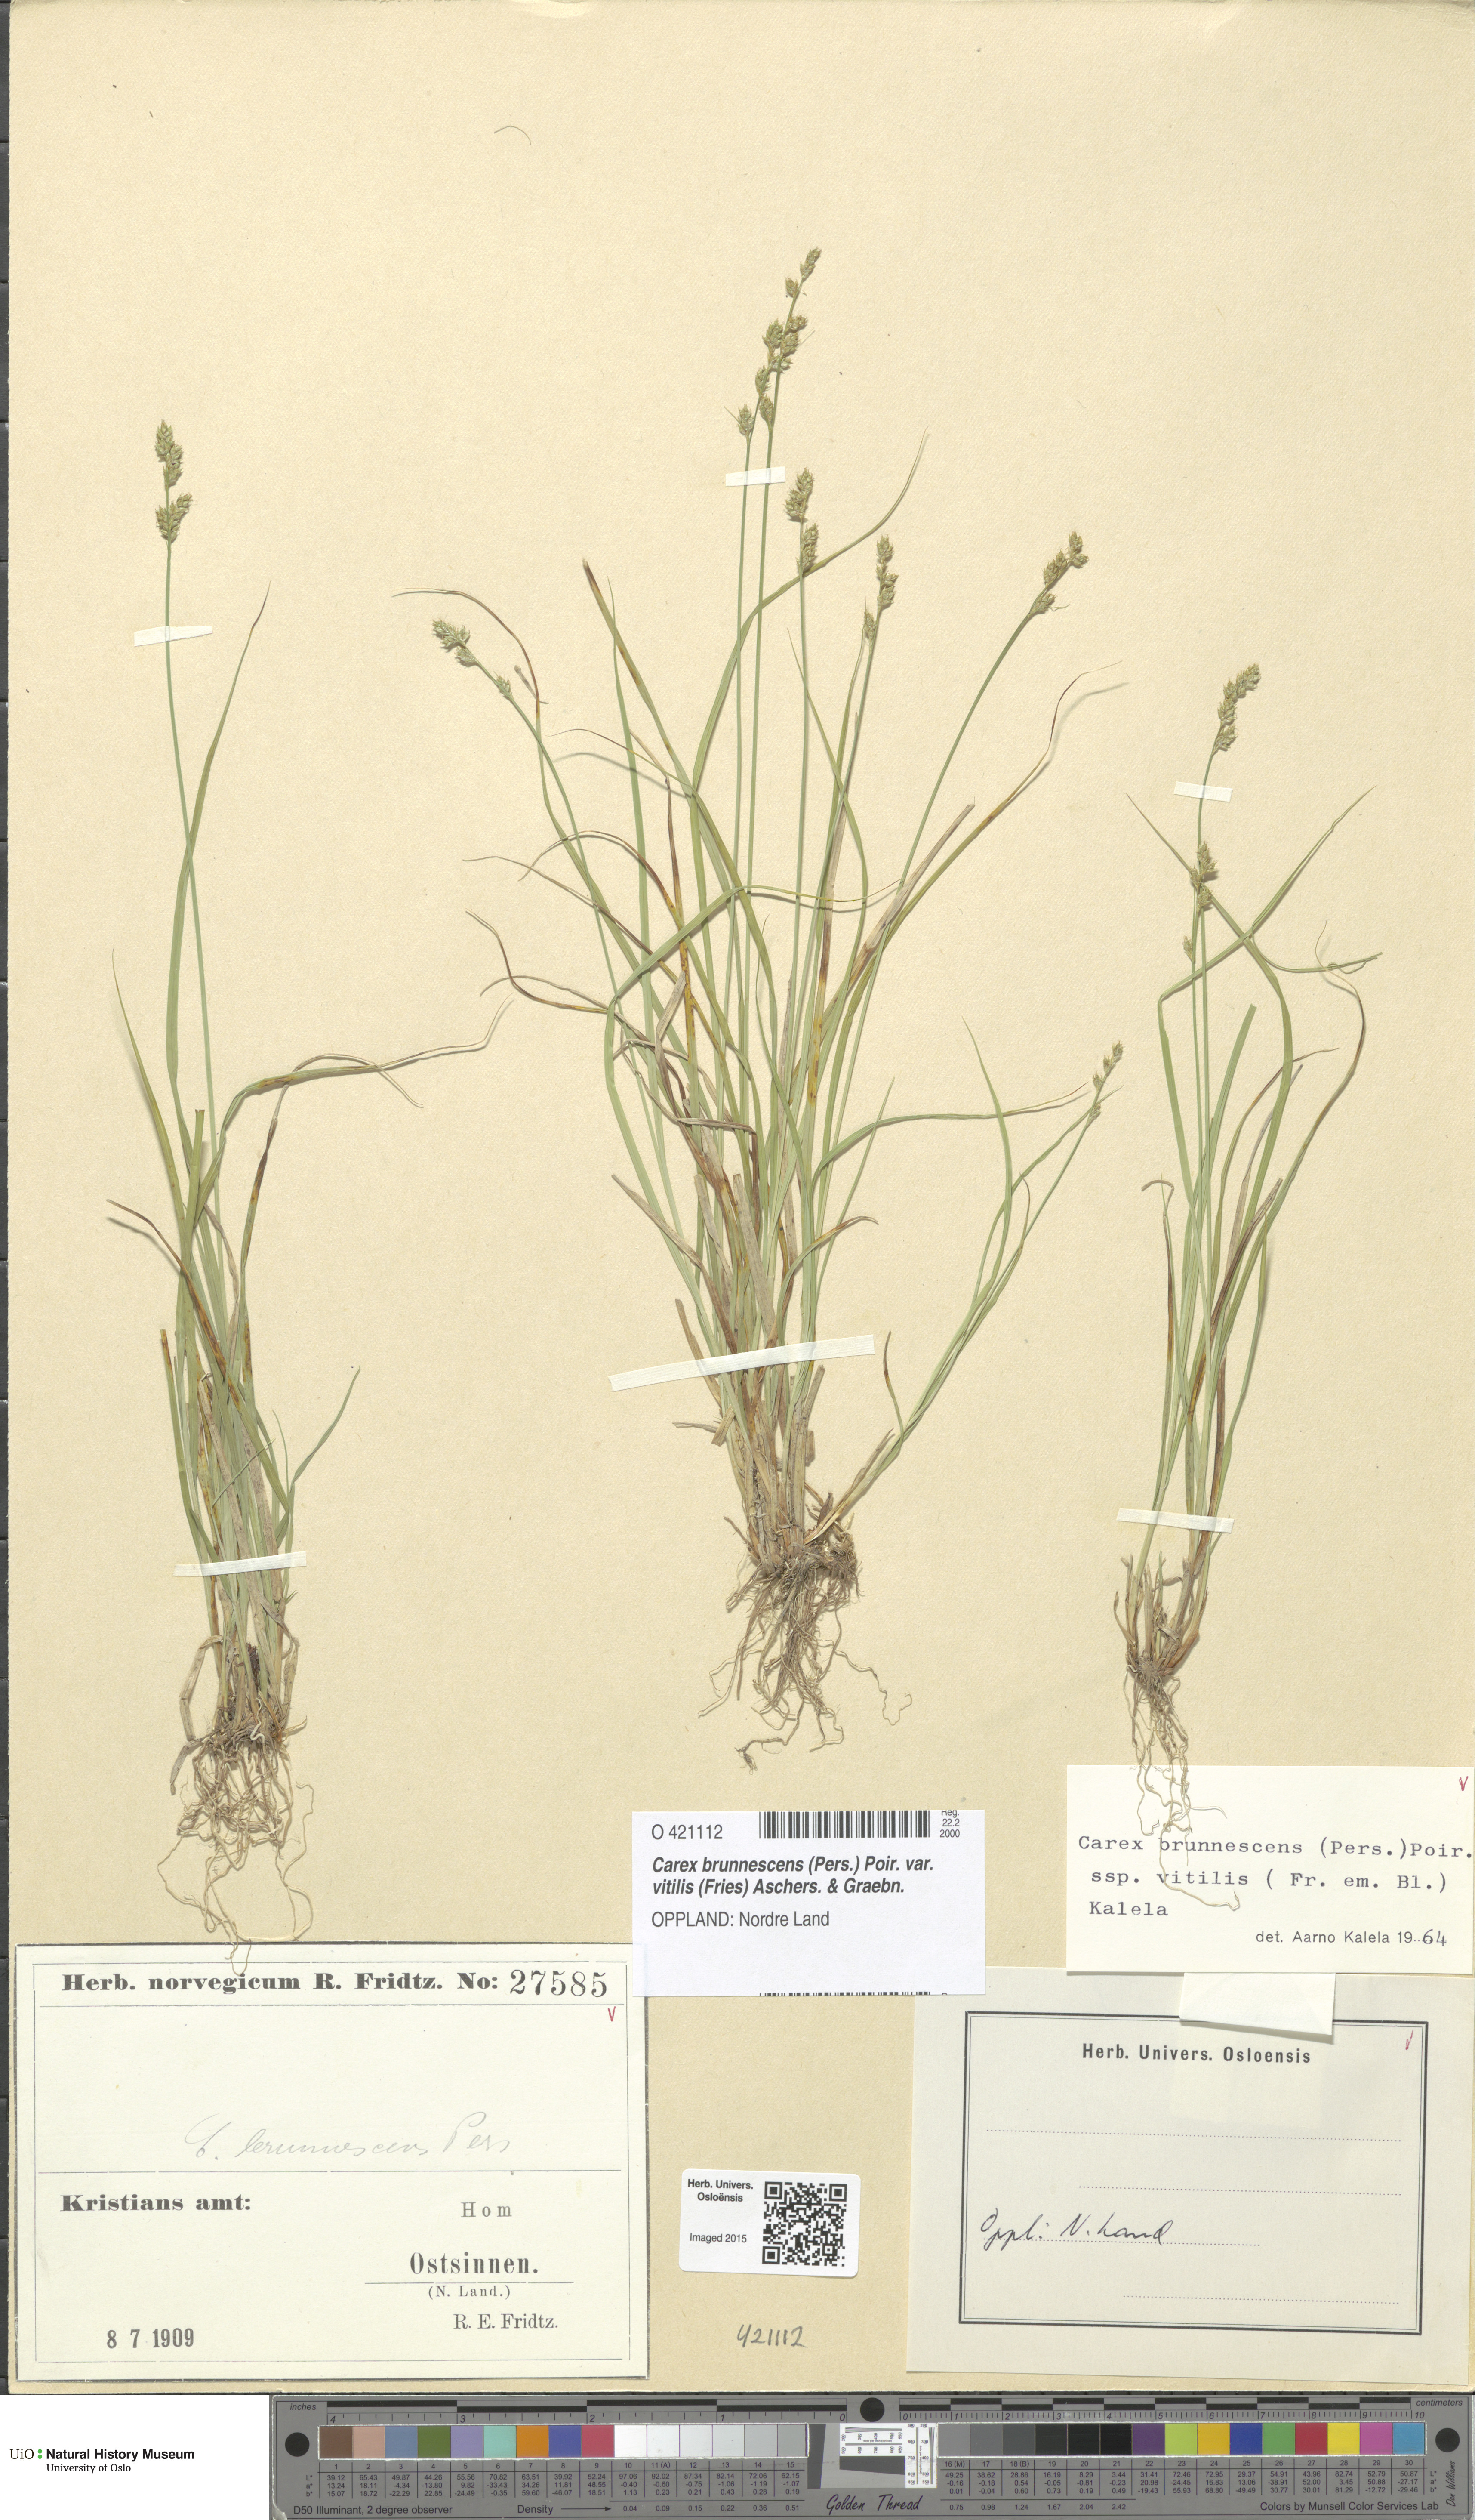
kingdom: Plantae
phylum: Tracheophyta
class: Liliopsida
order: Poales
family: Cyperaceae
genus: Carex
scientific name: Carex brunnescens
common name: Brown sedge
